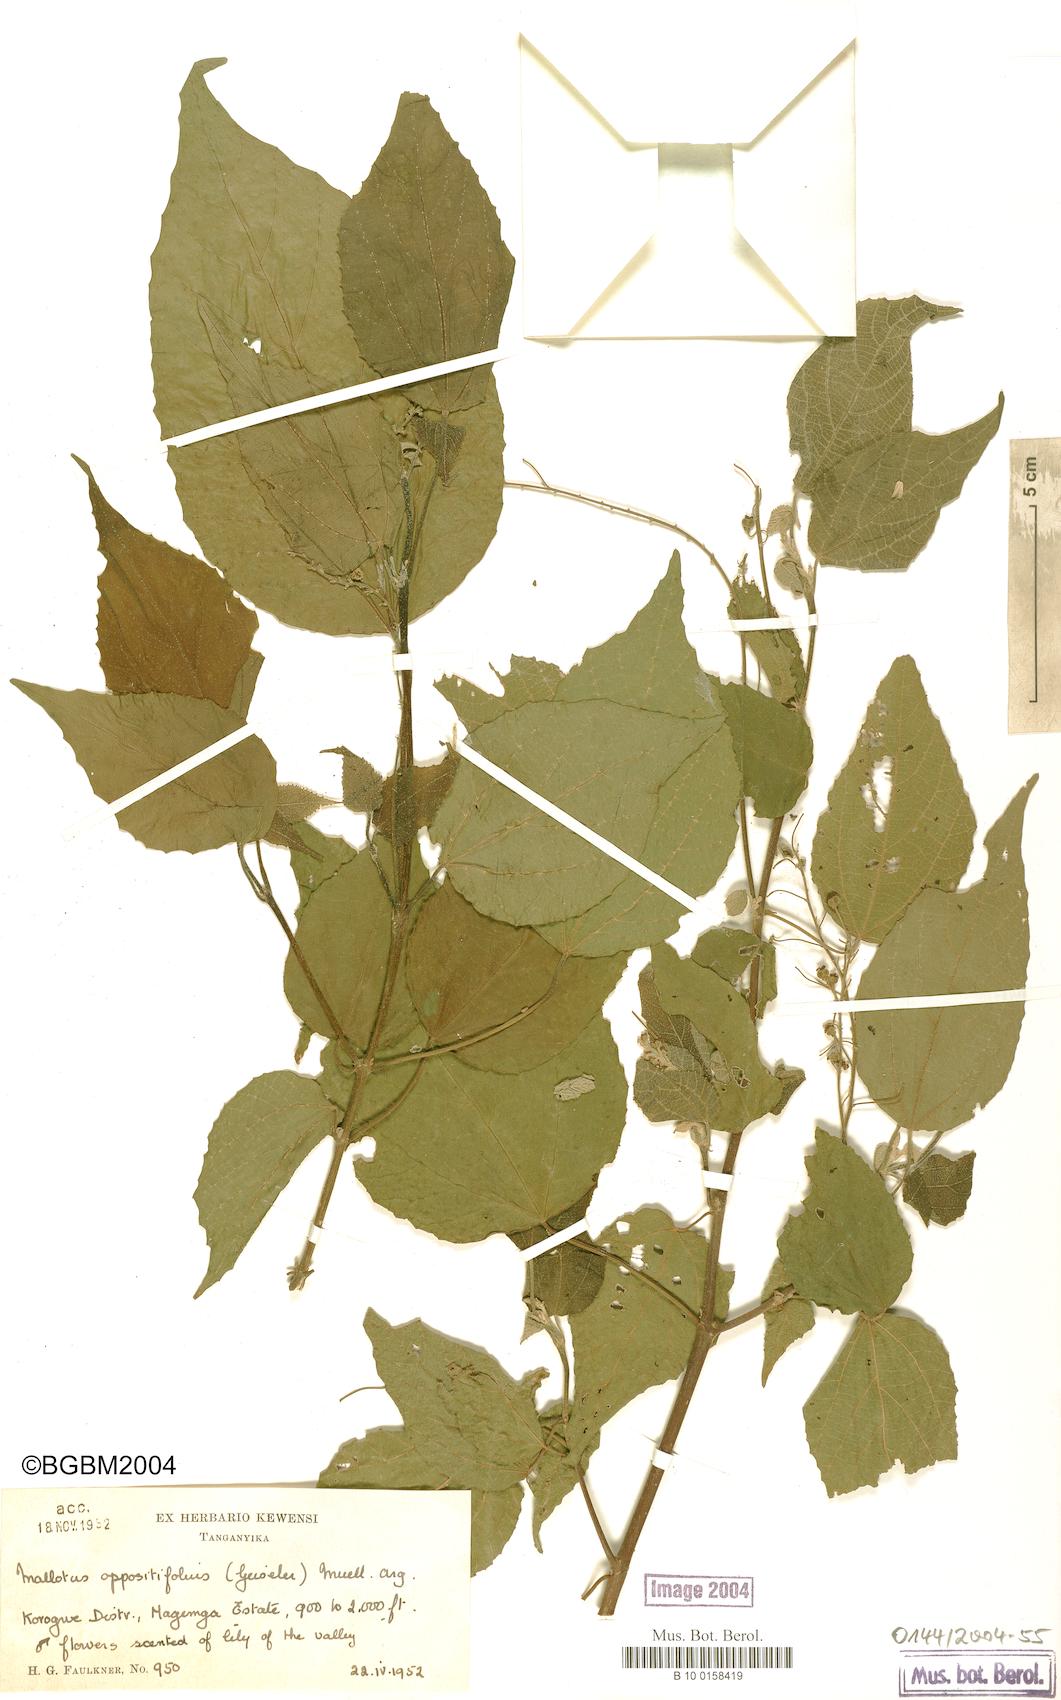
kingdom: Plantae
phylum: Tracheophyta
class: Magnoliopsida
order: Malpighiales
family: Euphorbiaceae
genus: Mallotus
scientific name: Mallotus oppositifolius
